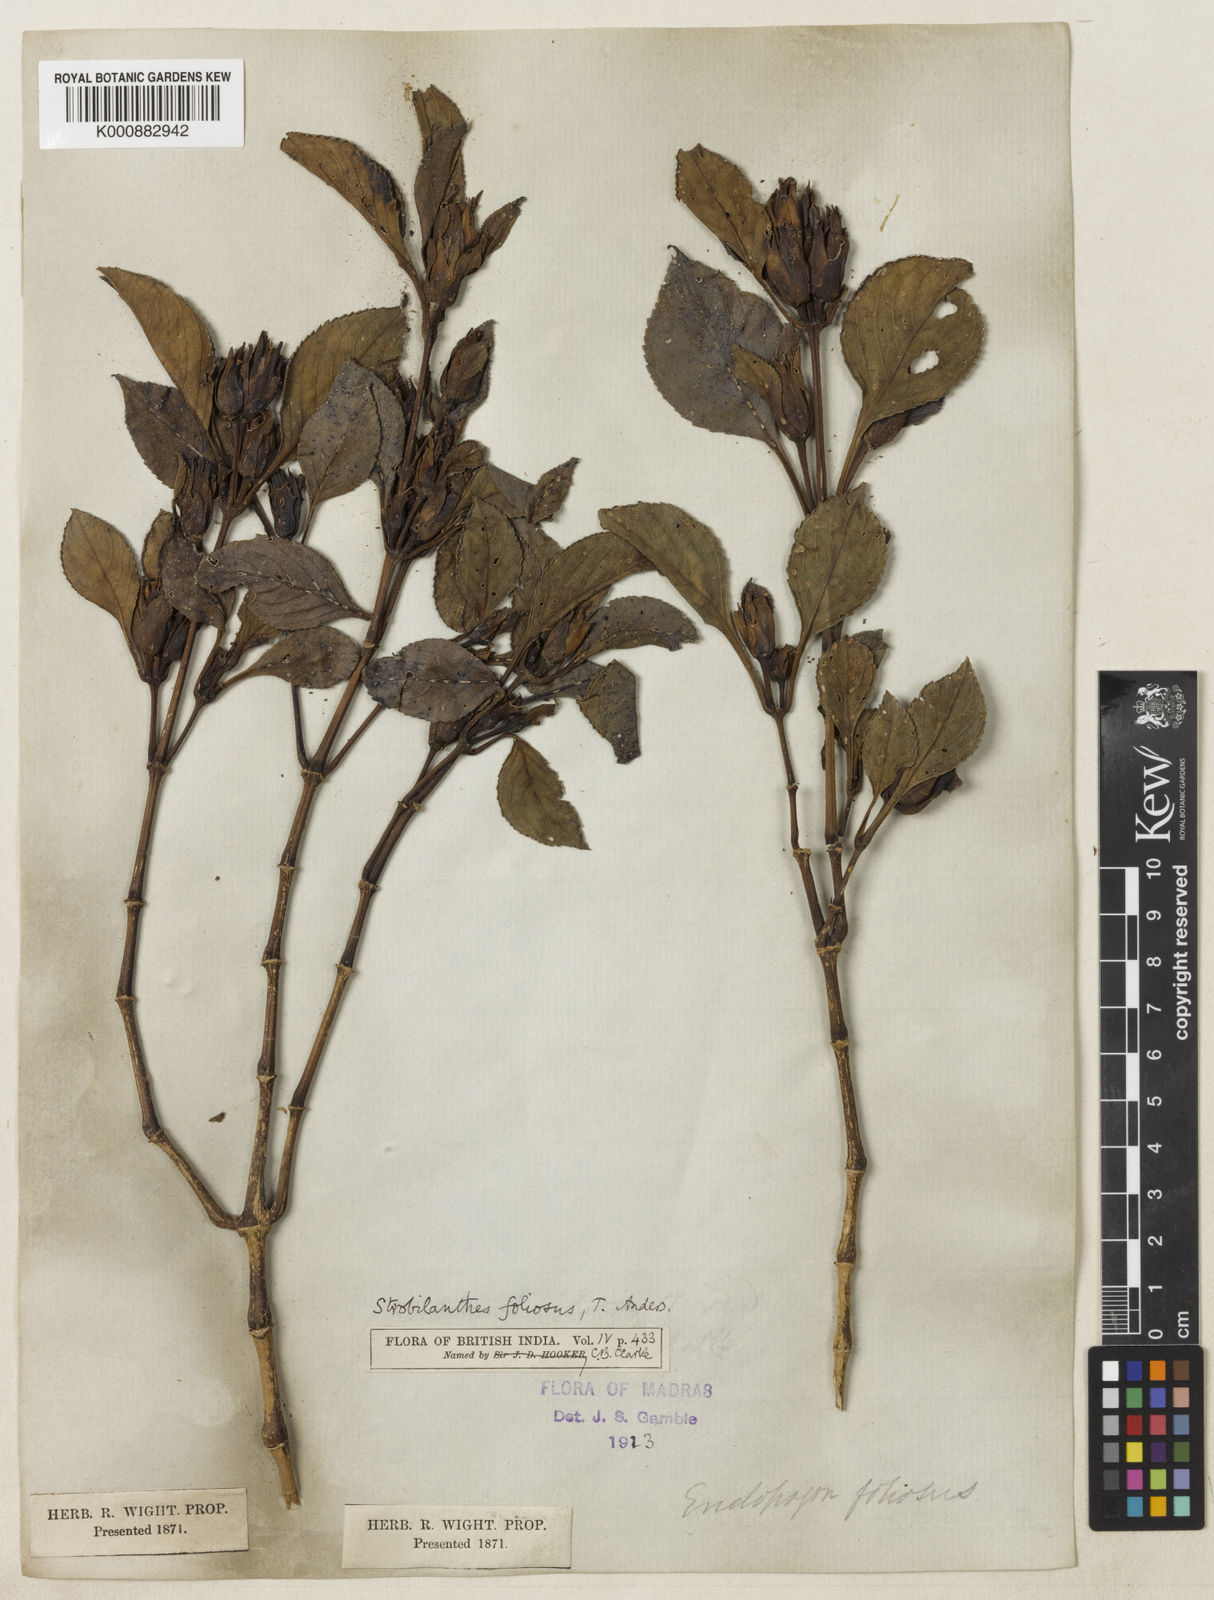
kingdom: Plantae
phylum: Tracheophyta
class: Magnoliopsida
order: Lamiales
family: Acanthaceae
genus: Strobilanthes
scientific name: Strobilanthes foliosa
